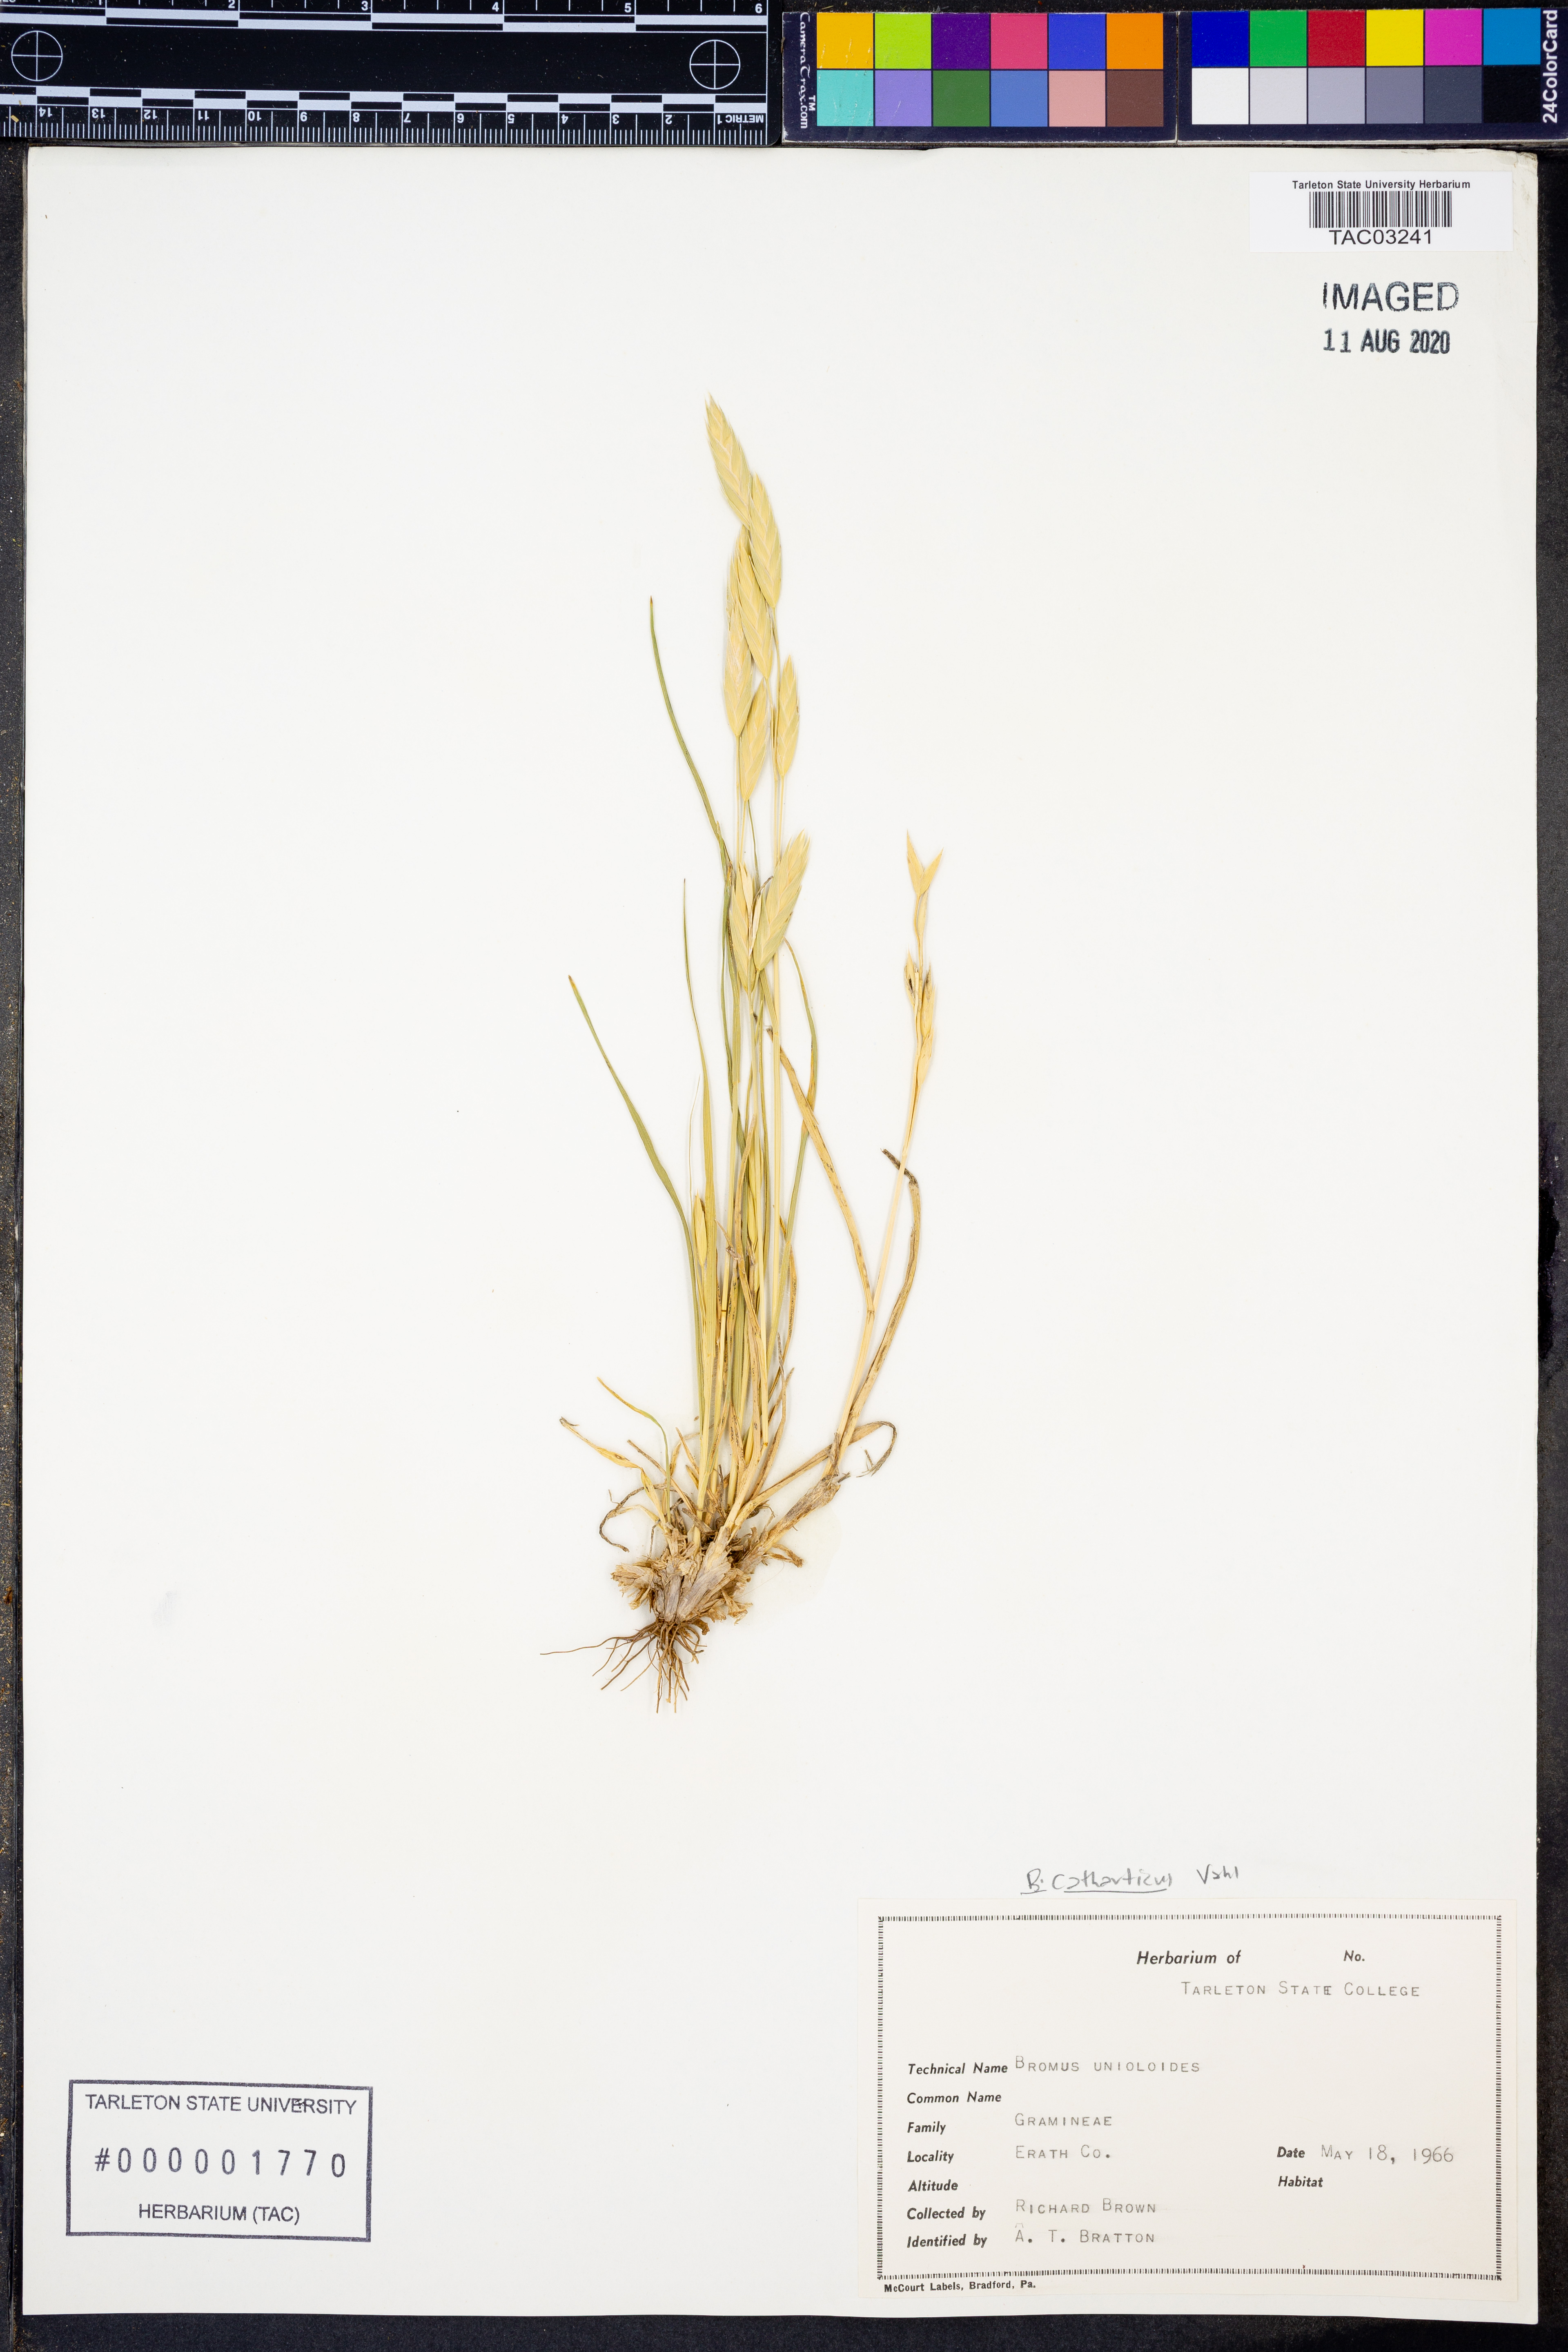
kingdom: Plantae
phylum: Tracheophyta
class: Liliopsida
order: Poales
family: Poaceae
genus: Bromus
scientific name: Bromus catharticus
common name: Rescuegrass
